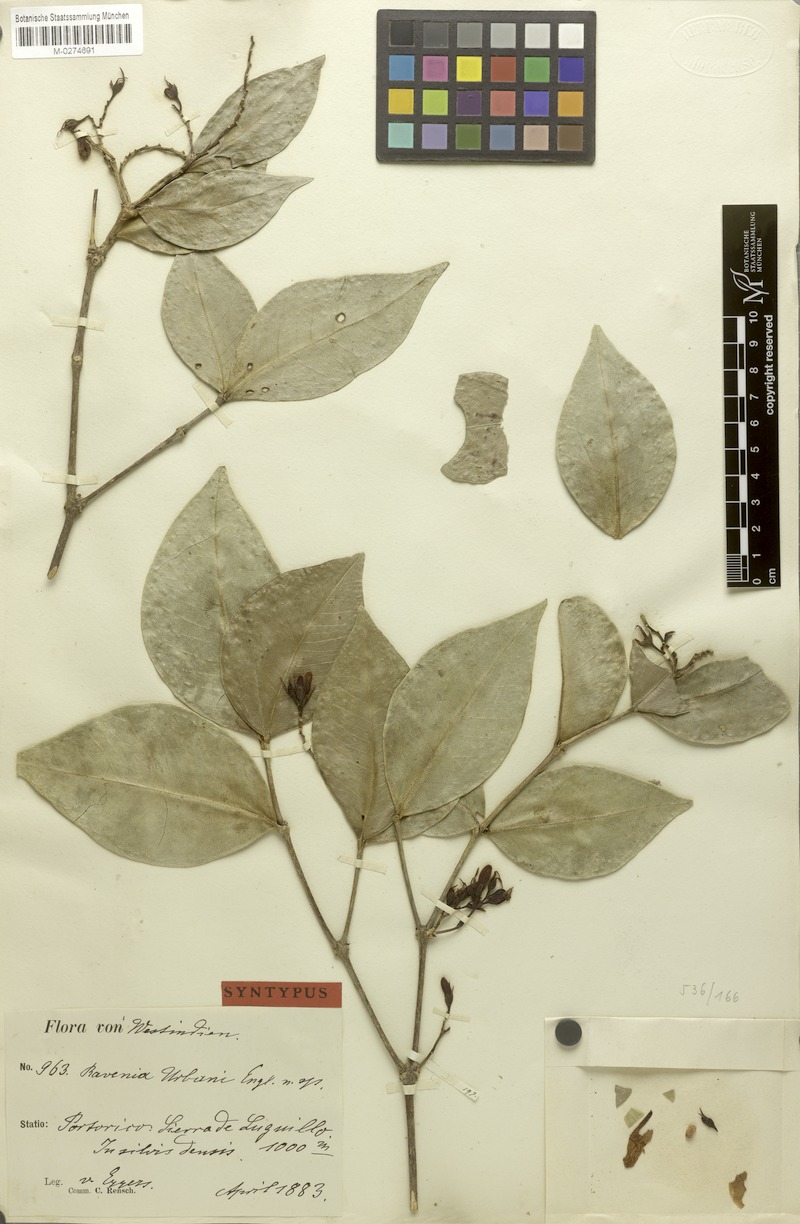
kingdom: Plantae
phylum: Tracheophyta
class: Magnoliopsida
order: Sapindales
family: Rutaceae
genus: Ravenia
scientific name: Ravenia urbanii
